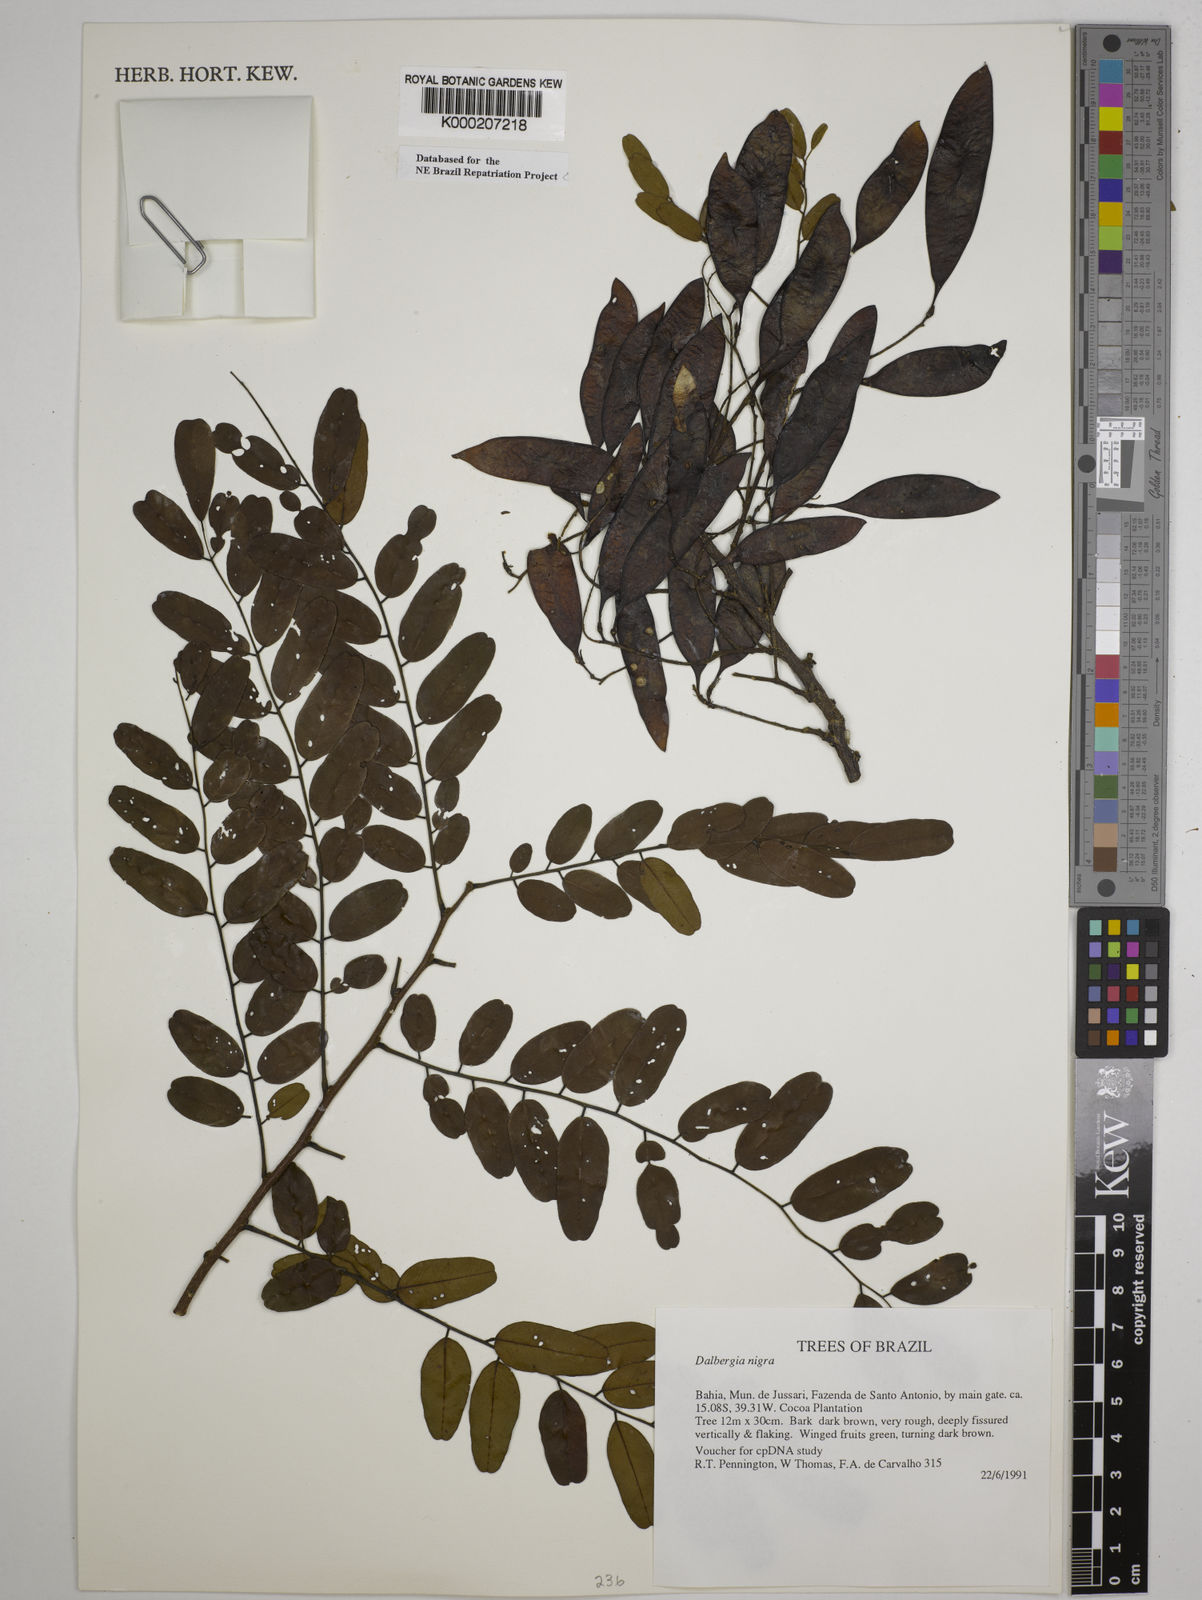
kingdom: Plantae
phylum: Tracheophyta
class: Magnoliopsida
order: Fabales
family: Fabaceae
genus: Dalbergia
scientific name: Dalbergia nigra
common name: Bahia rosewood
